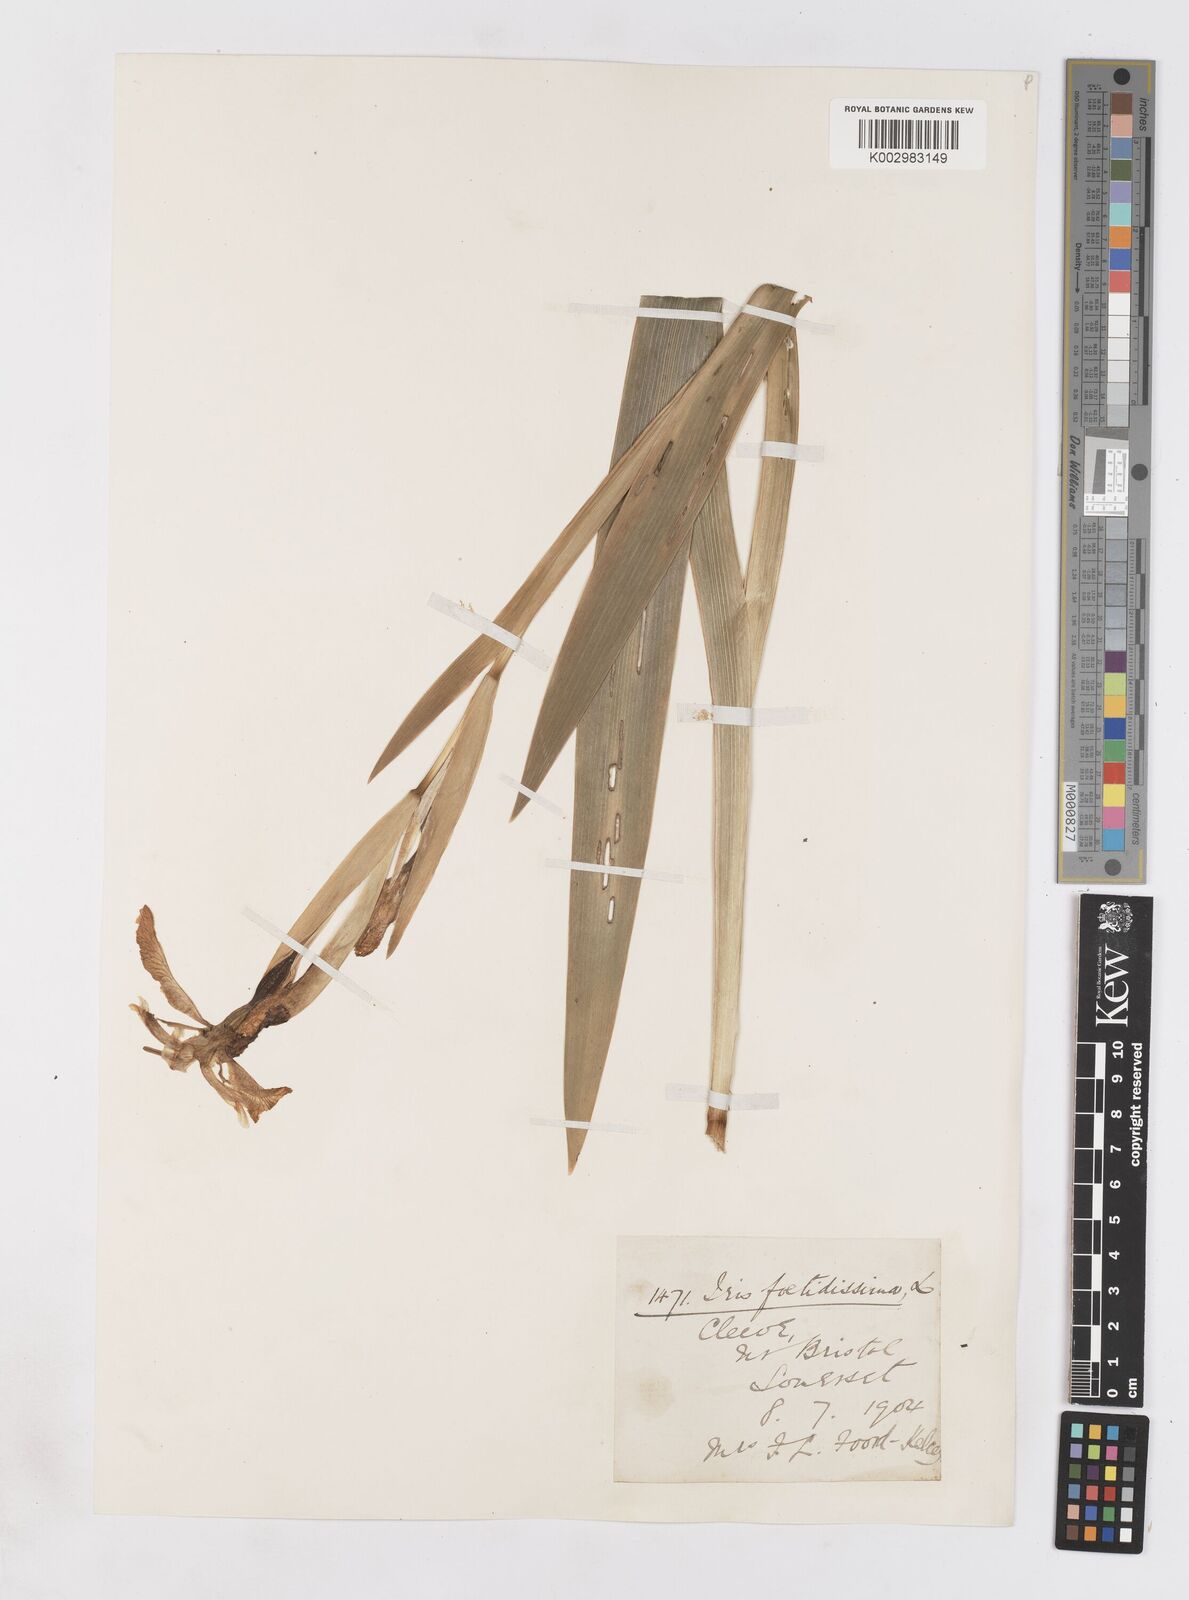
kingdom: Plantae
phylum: Tracheophyta
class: Liliopsida
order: Asparagales
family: Iridaceae
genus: Iris
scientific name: Iris foetidissima
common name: Stinking iris
